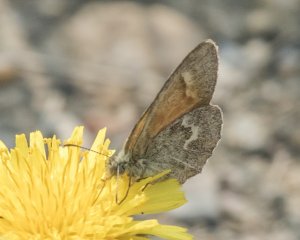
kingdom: Animalia
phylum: Arthropoda
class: Insecta
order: Lepidoptera
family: Nymphalidae
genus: Coenonympha
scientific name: Coenonympha tullia
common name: Large Heath
